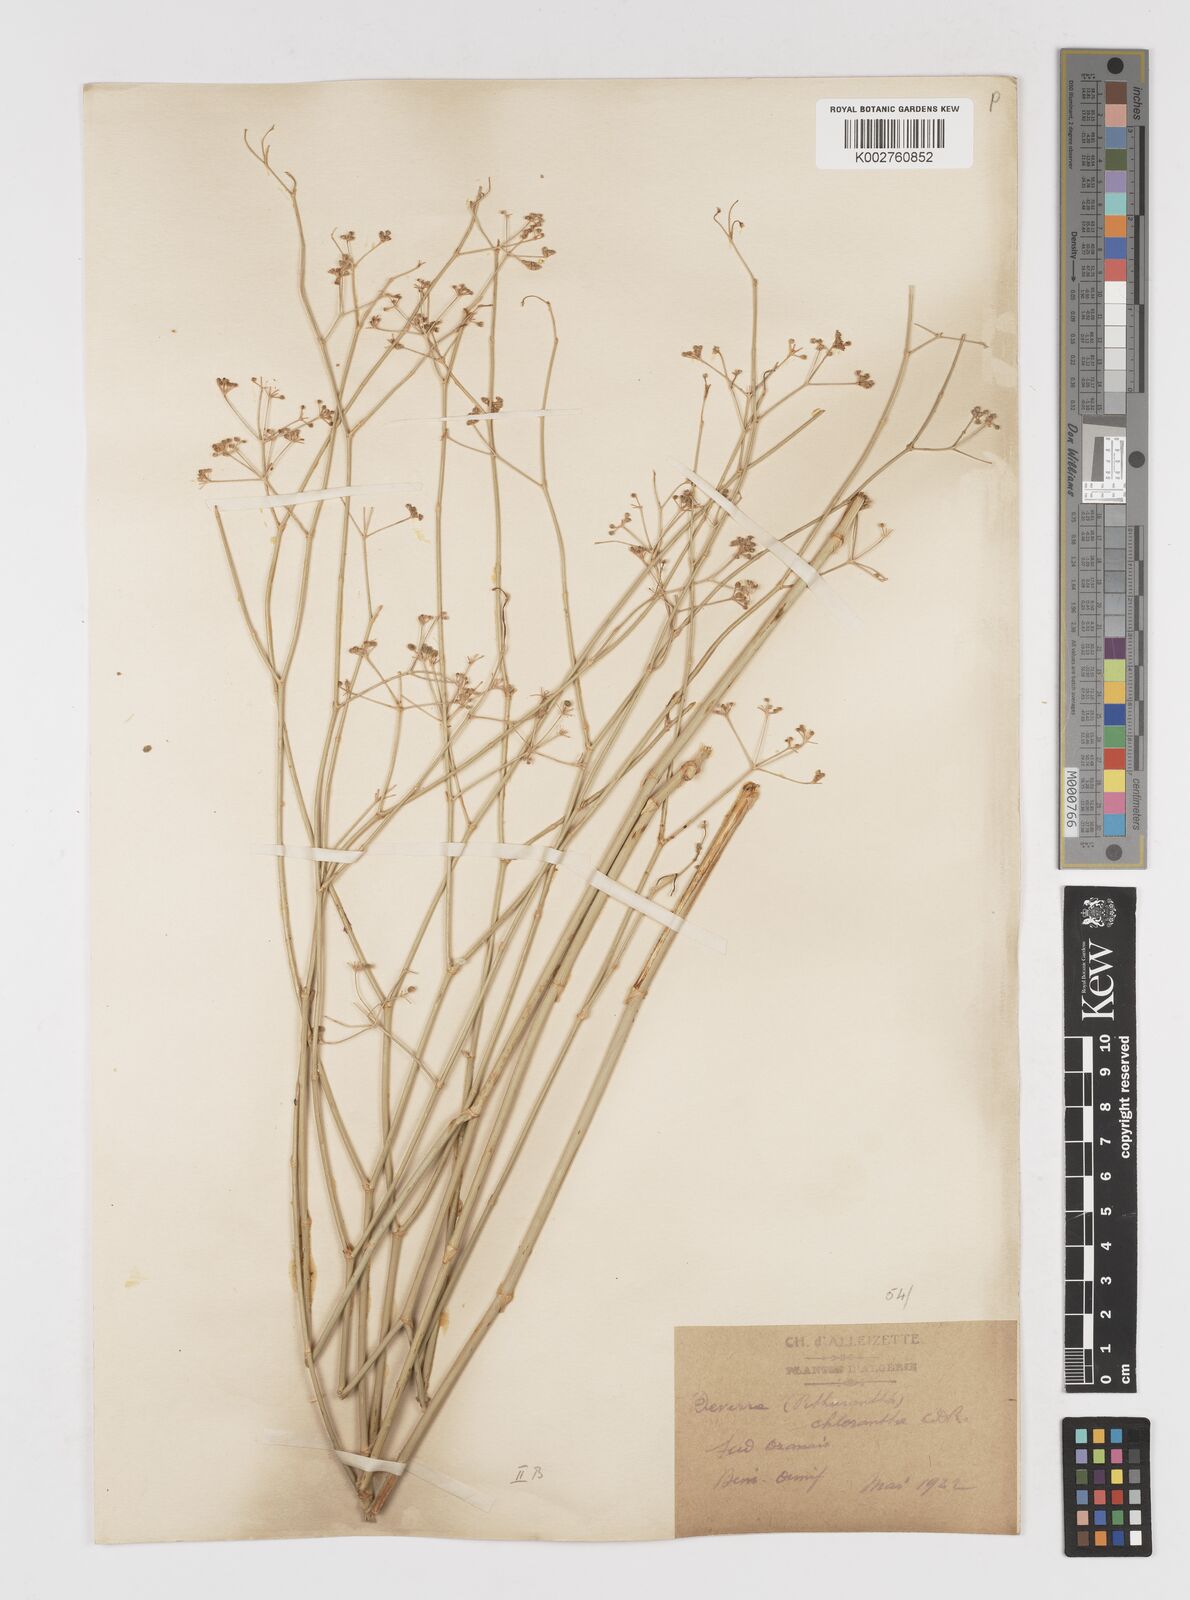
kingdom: Plantae
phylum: Tracheophyta
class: Magnoliopsida
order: Apiales
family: Apiaceae
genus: Deverra
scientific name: Deverra denudata
